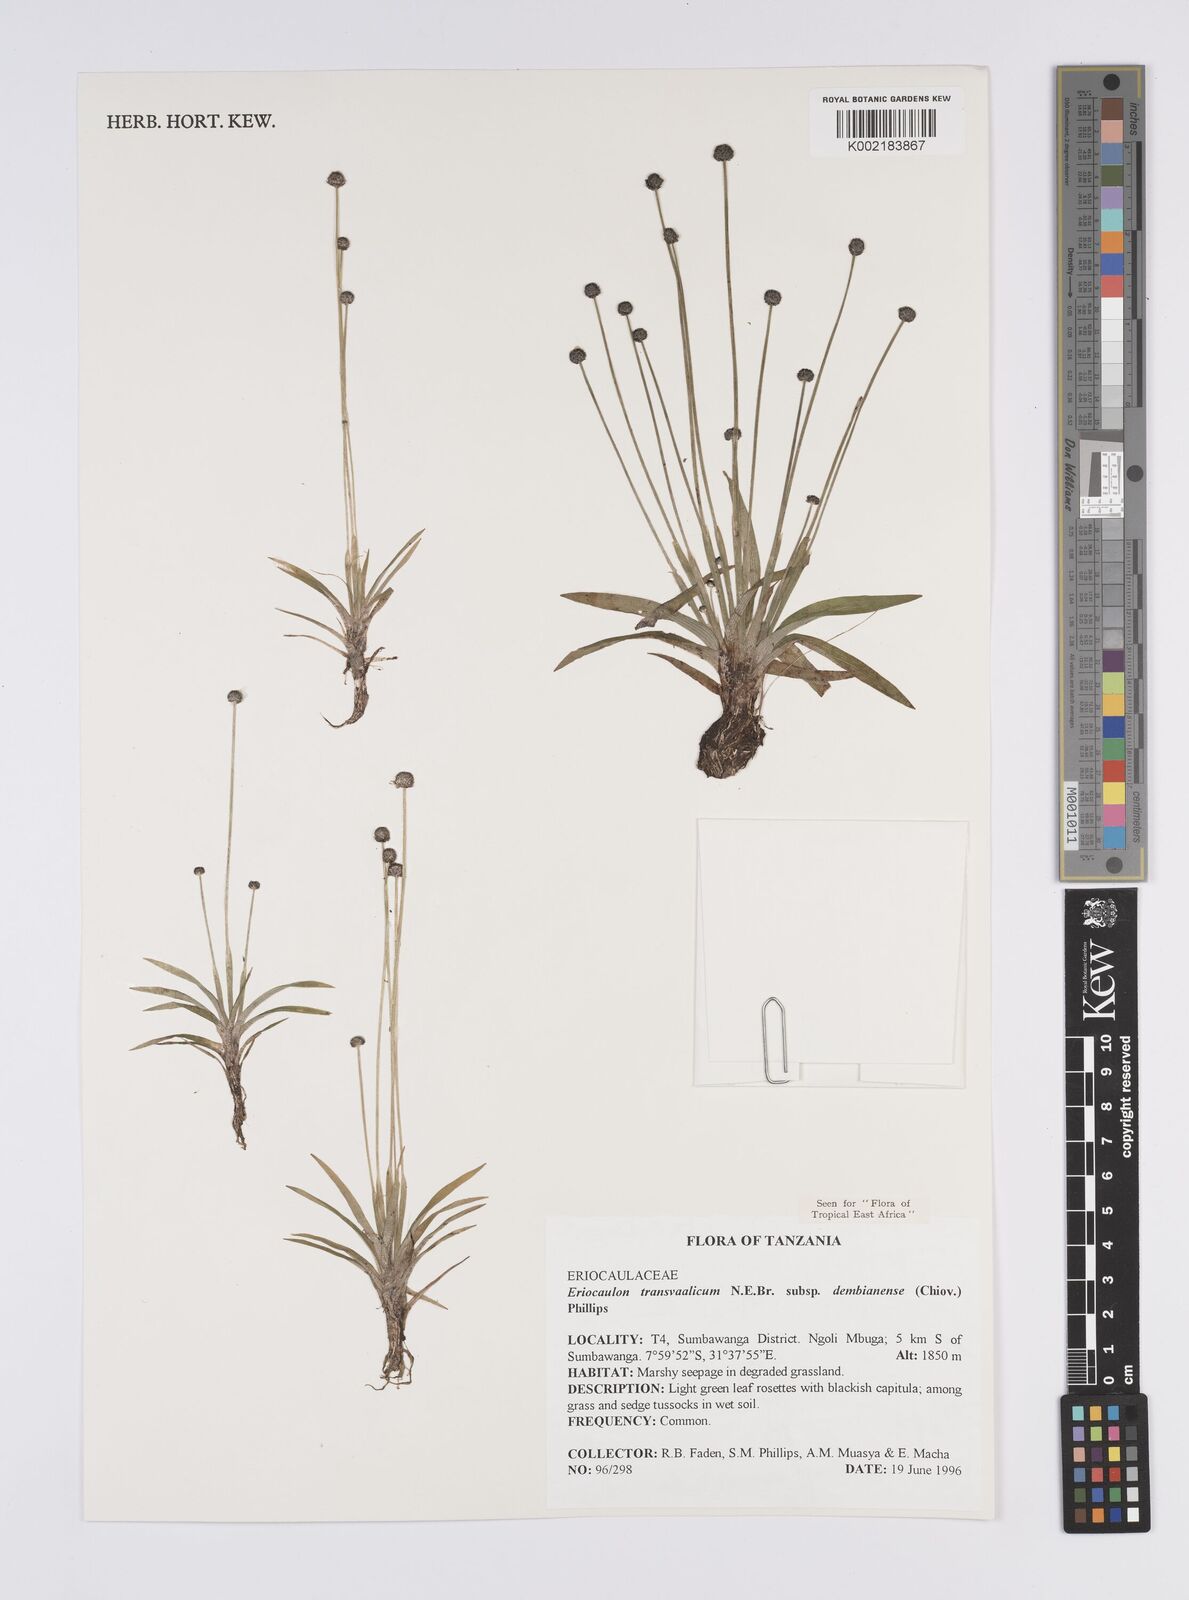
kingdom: Plantae
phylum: Tracheophyta
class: Liliopsida
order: Poales
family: Eriocaulaceae
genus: Eriocaulon
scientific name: Eriocaulon transvaalicum
